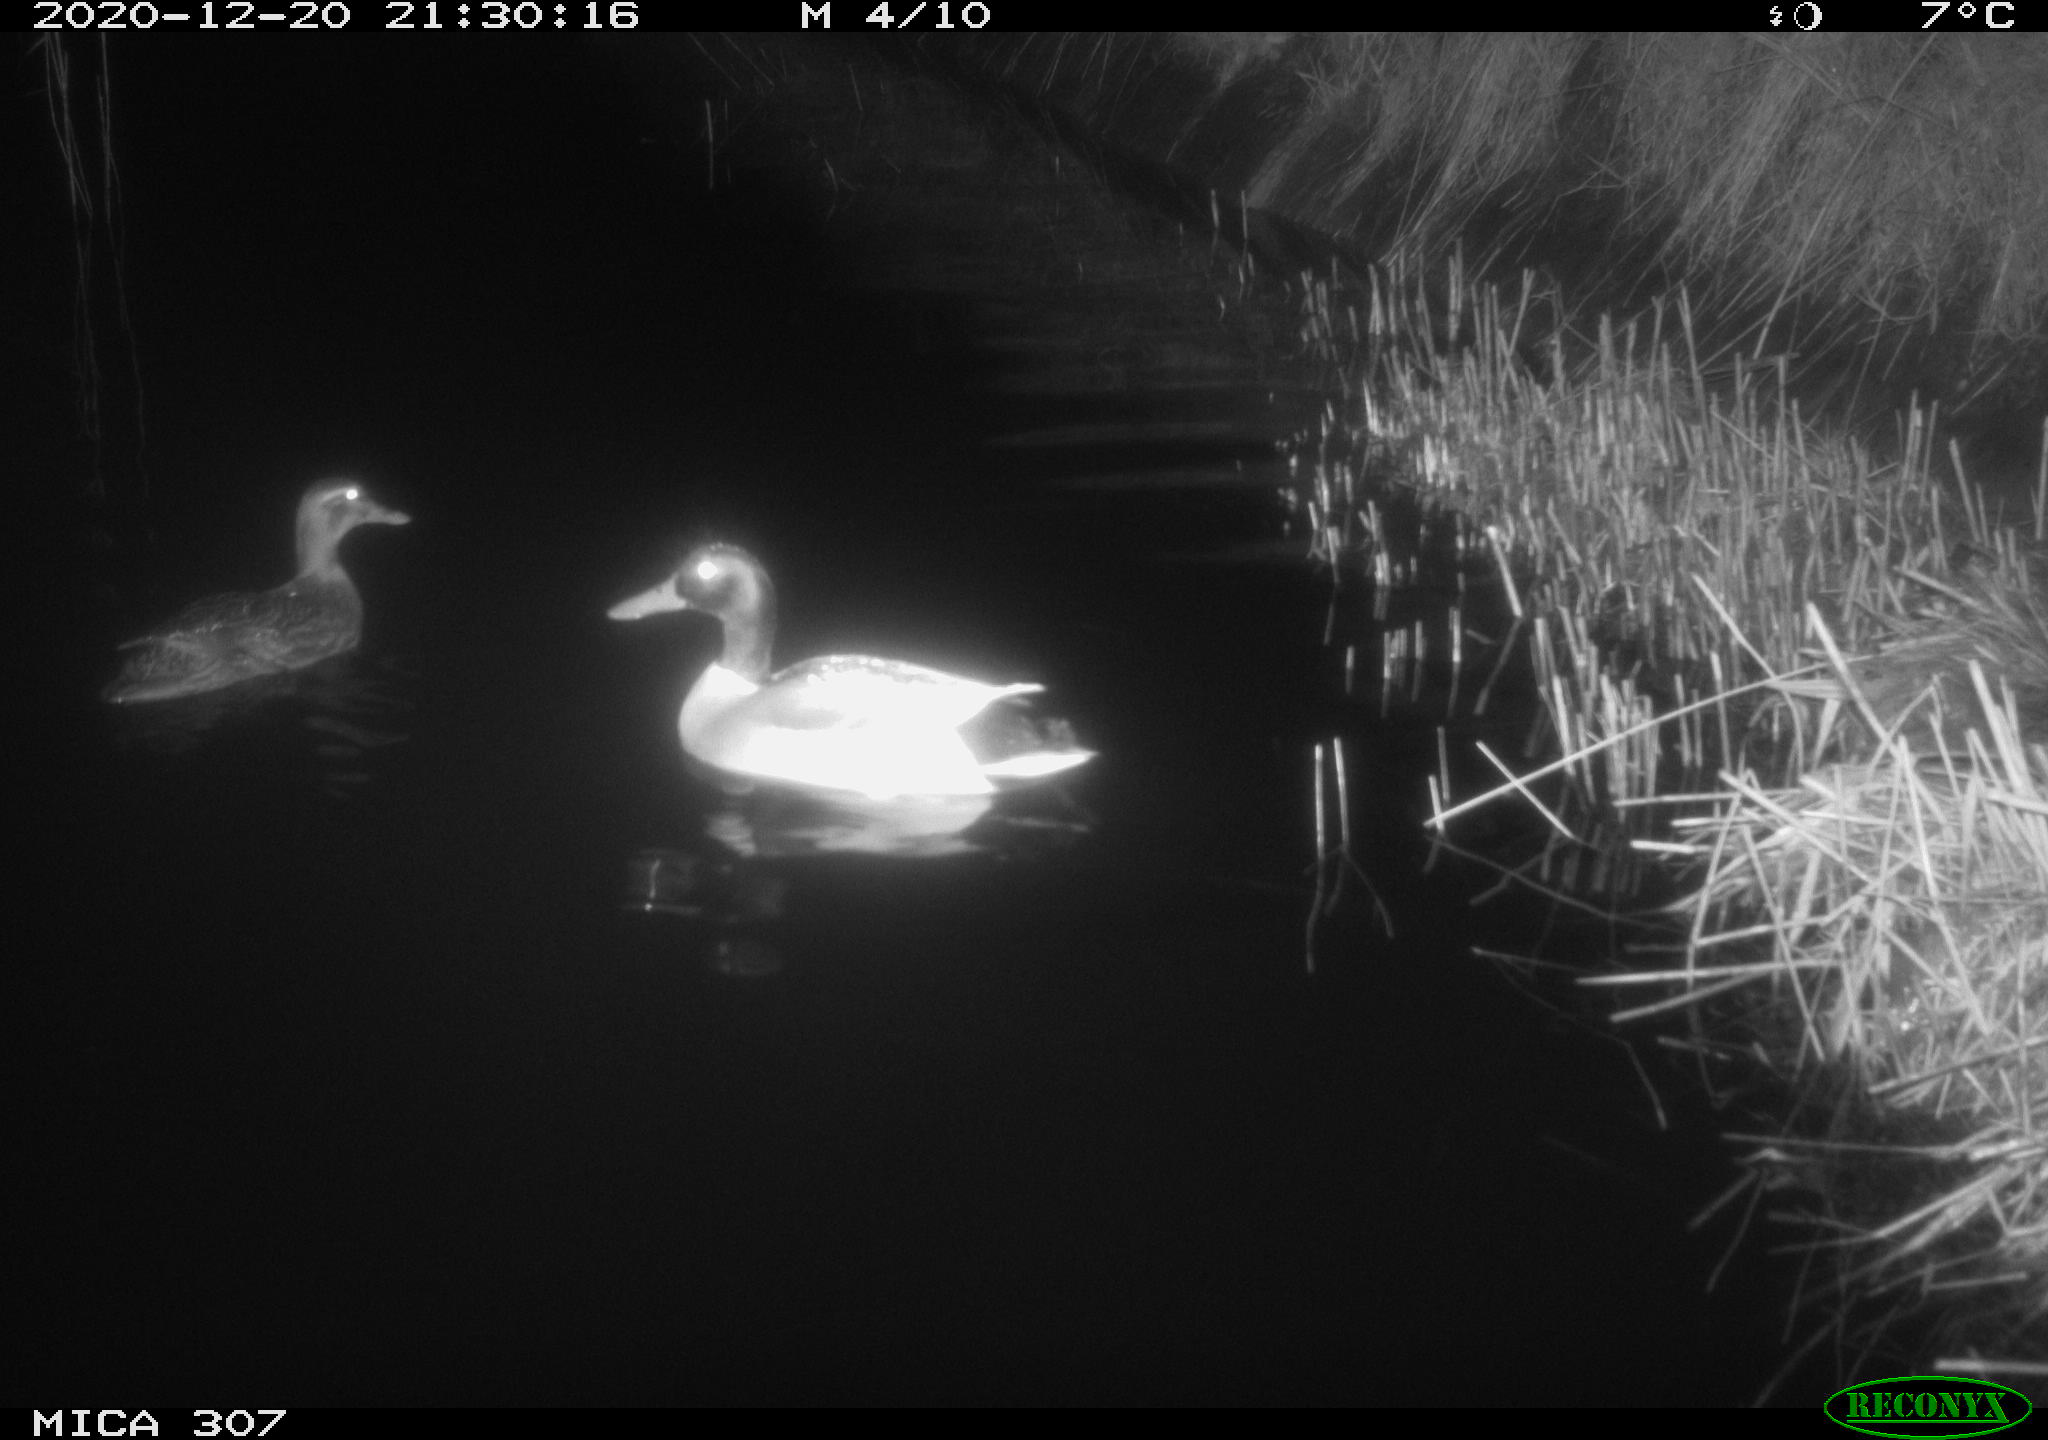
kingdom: Animalia
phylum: Chordata
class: Aves
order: Anseriformes
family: Anatidae
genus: Anas
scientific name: Anas platyrhynchos
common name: Mallard
